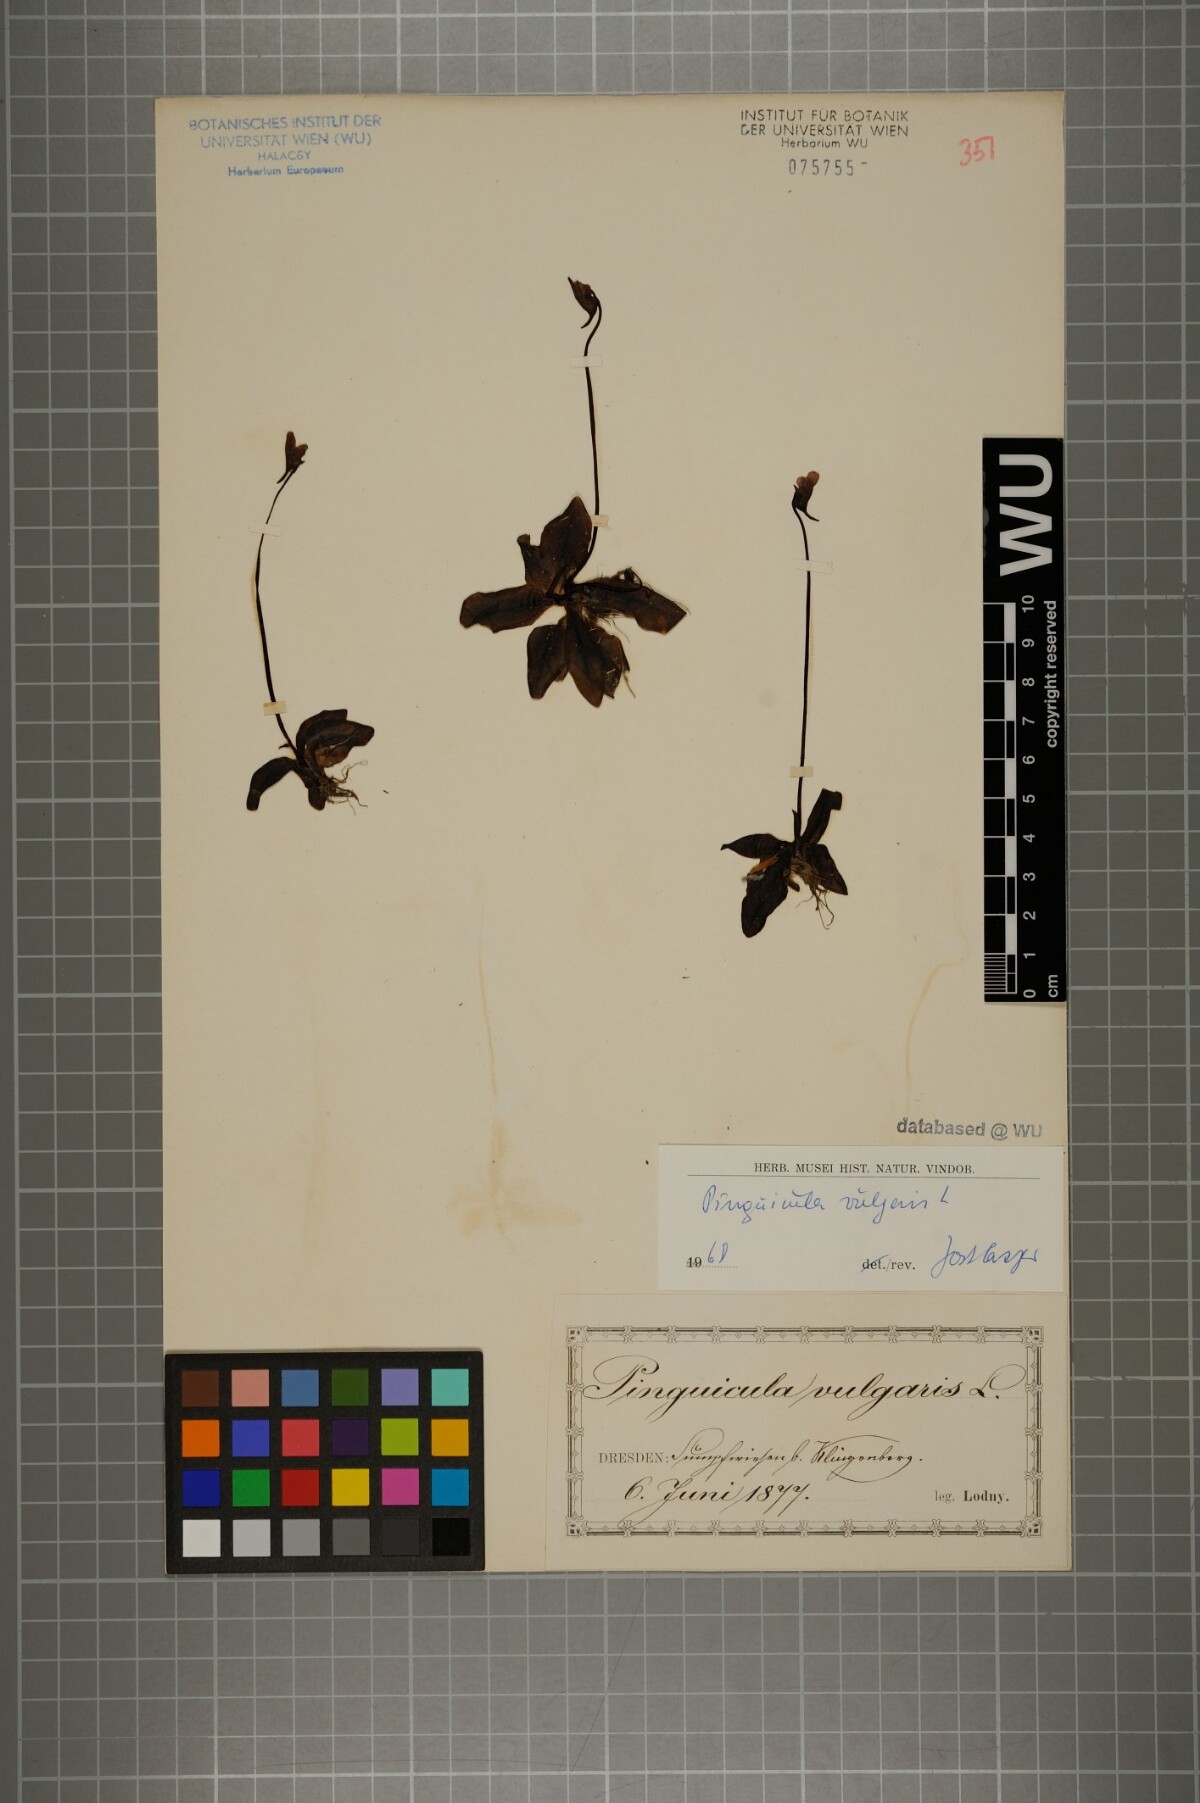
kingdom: Plantae
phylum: Tracheophyta
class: Magnoliopsida
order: Lamiales
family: Lentibulariaceae
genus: Pinguicula
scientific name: Pinguicula vulgaris
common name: Common butterwort
